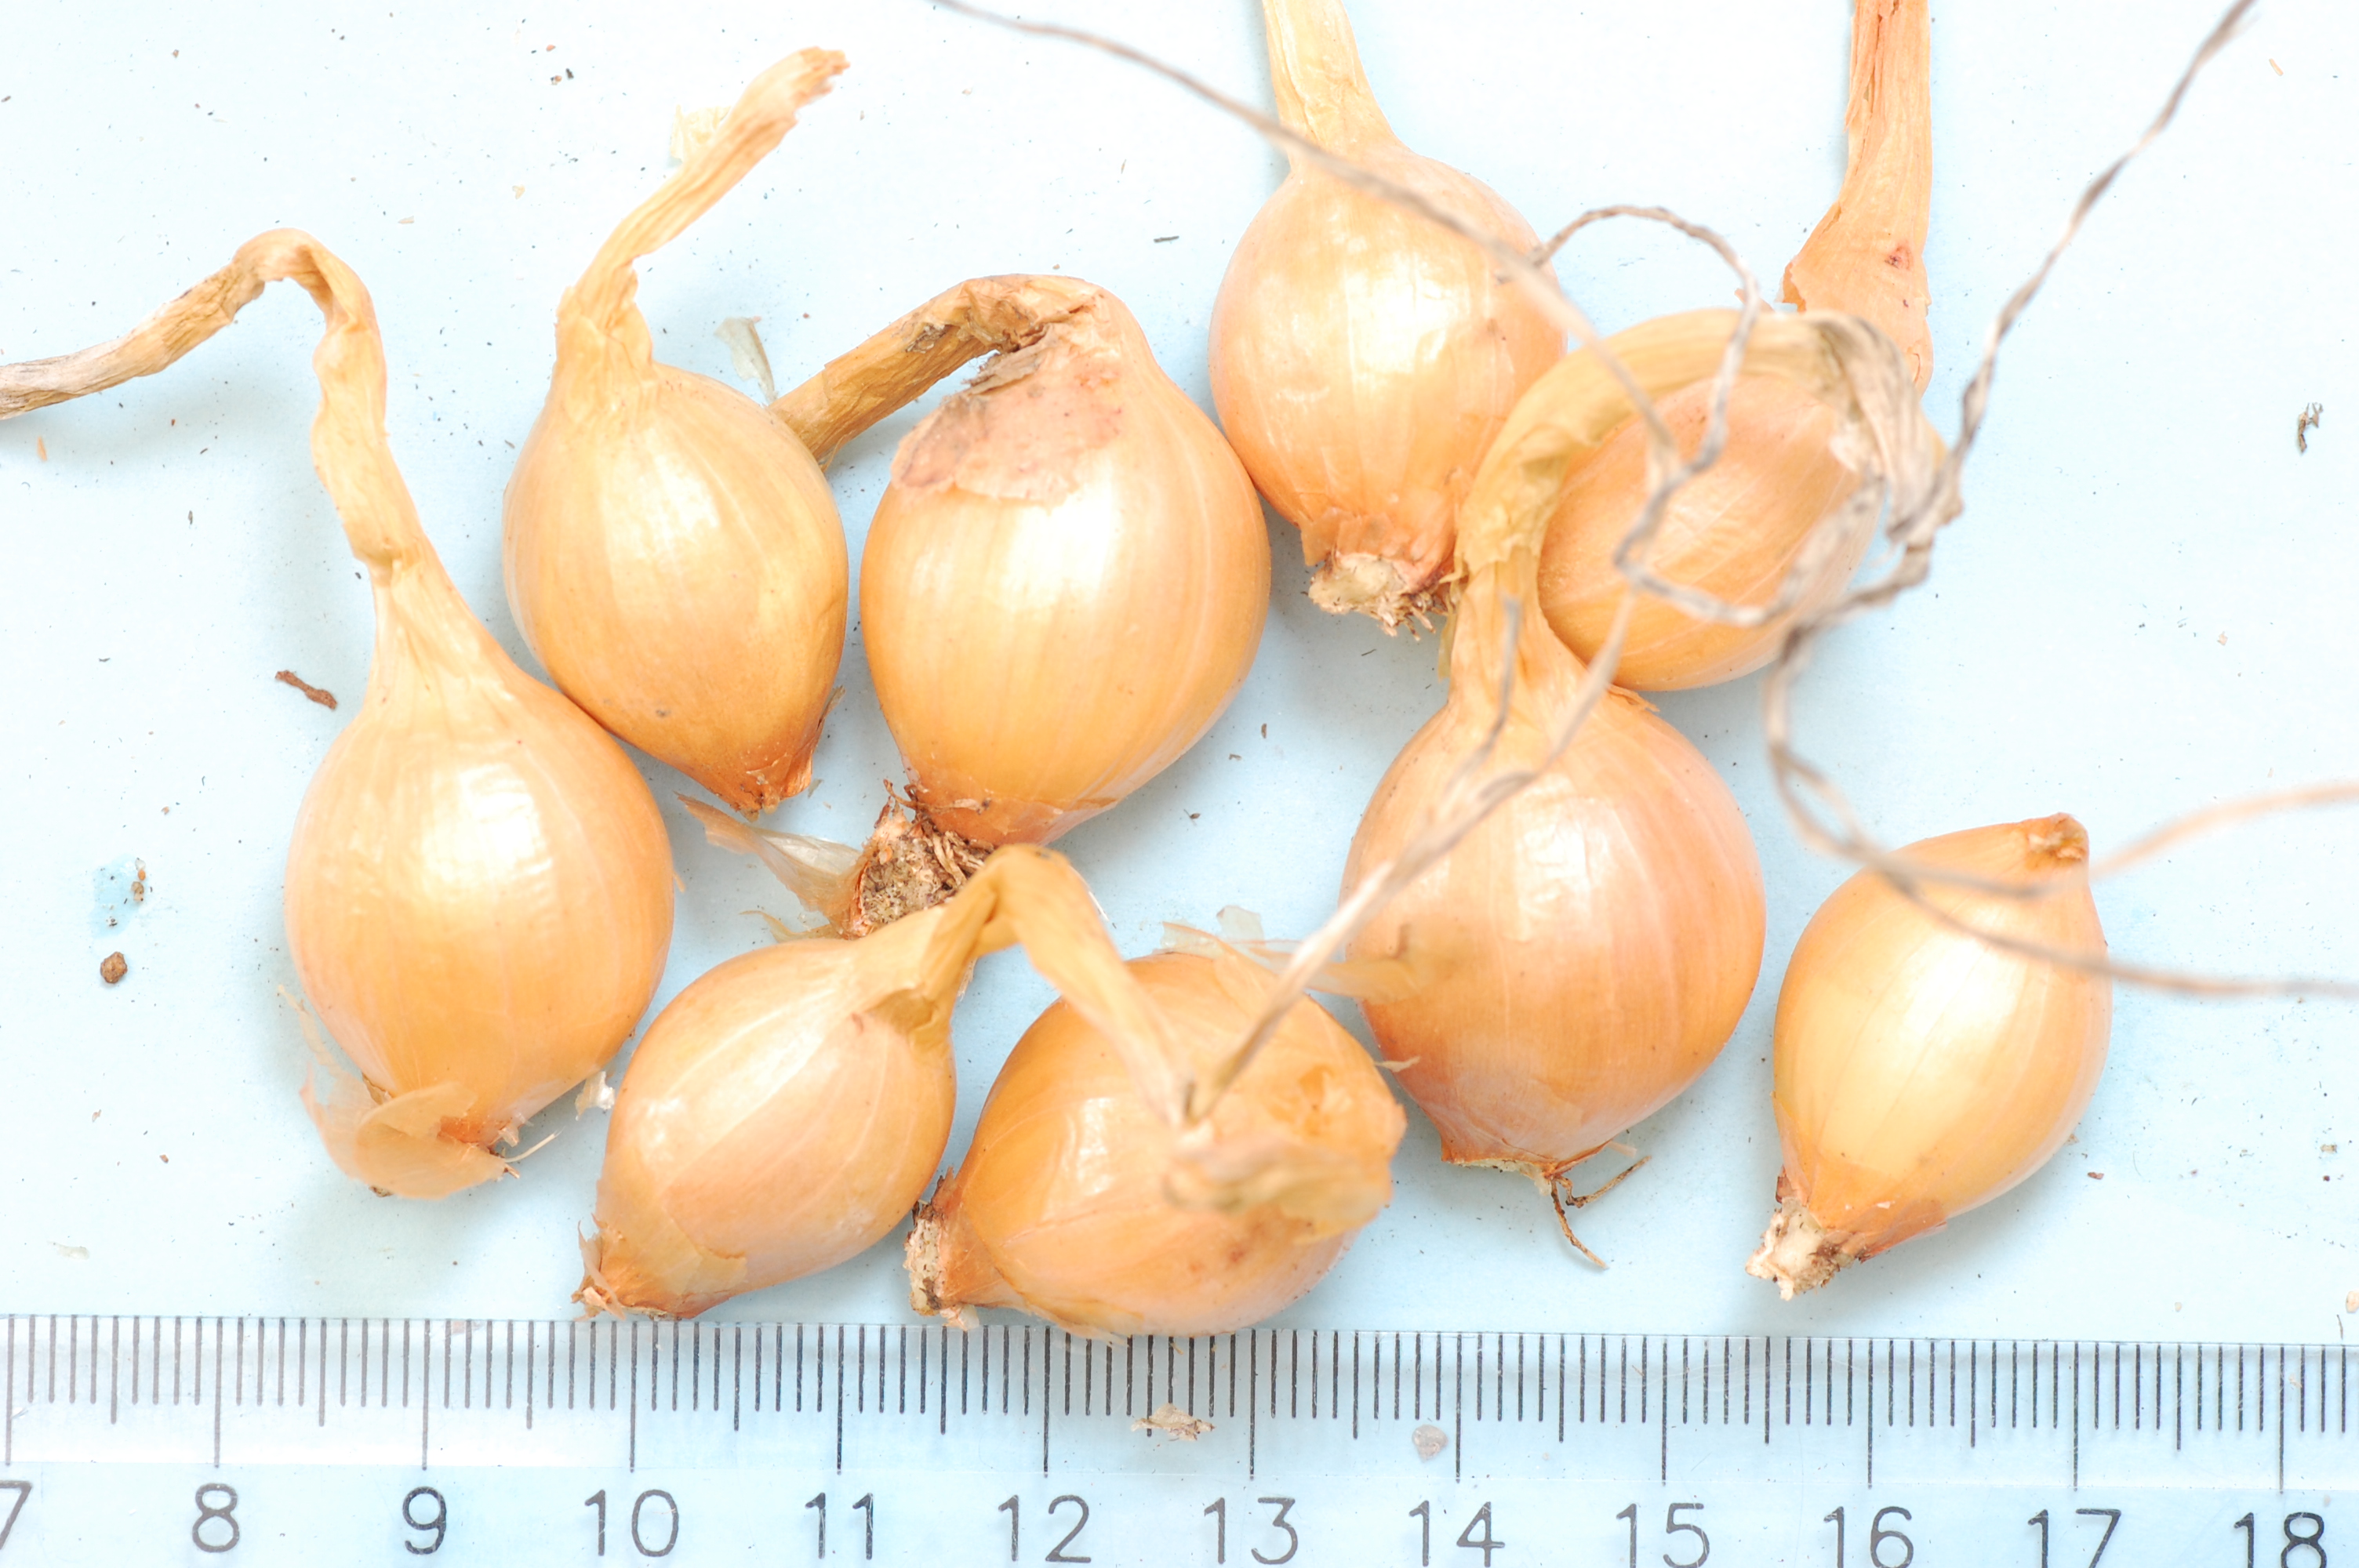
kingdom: Plantae
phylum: Tracheophyta
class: Liliopsida
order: Asparagales
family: Amaryllidaceae
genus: Allium
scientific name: Allium cepa
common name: Onion
